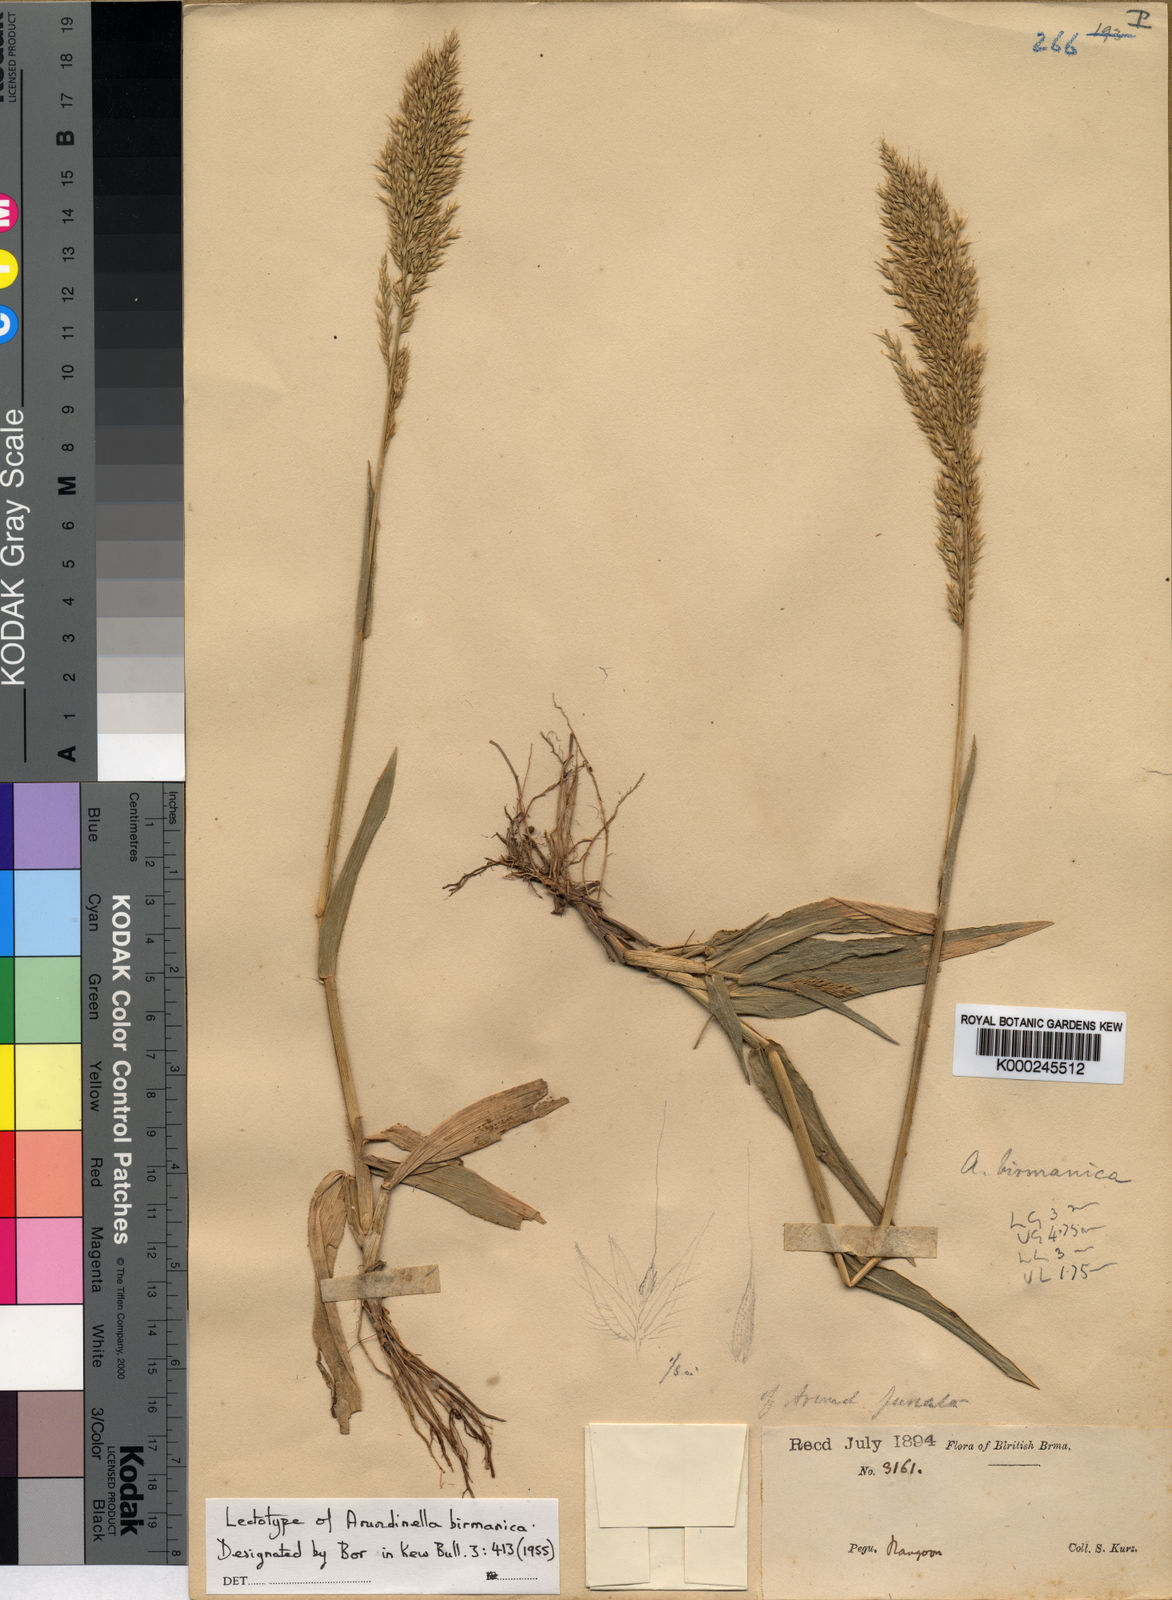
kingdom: Plantae
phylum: Tracheophyta
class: Liliopsida
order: Poales
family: Poaceae
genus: Arundinella
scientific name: Arundinella holcoides
